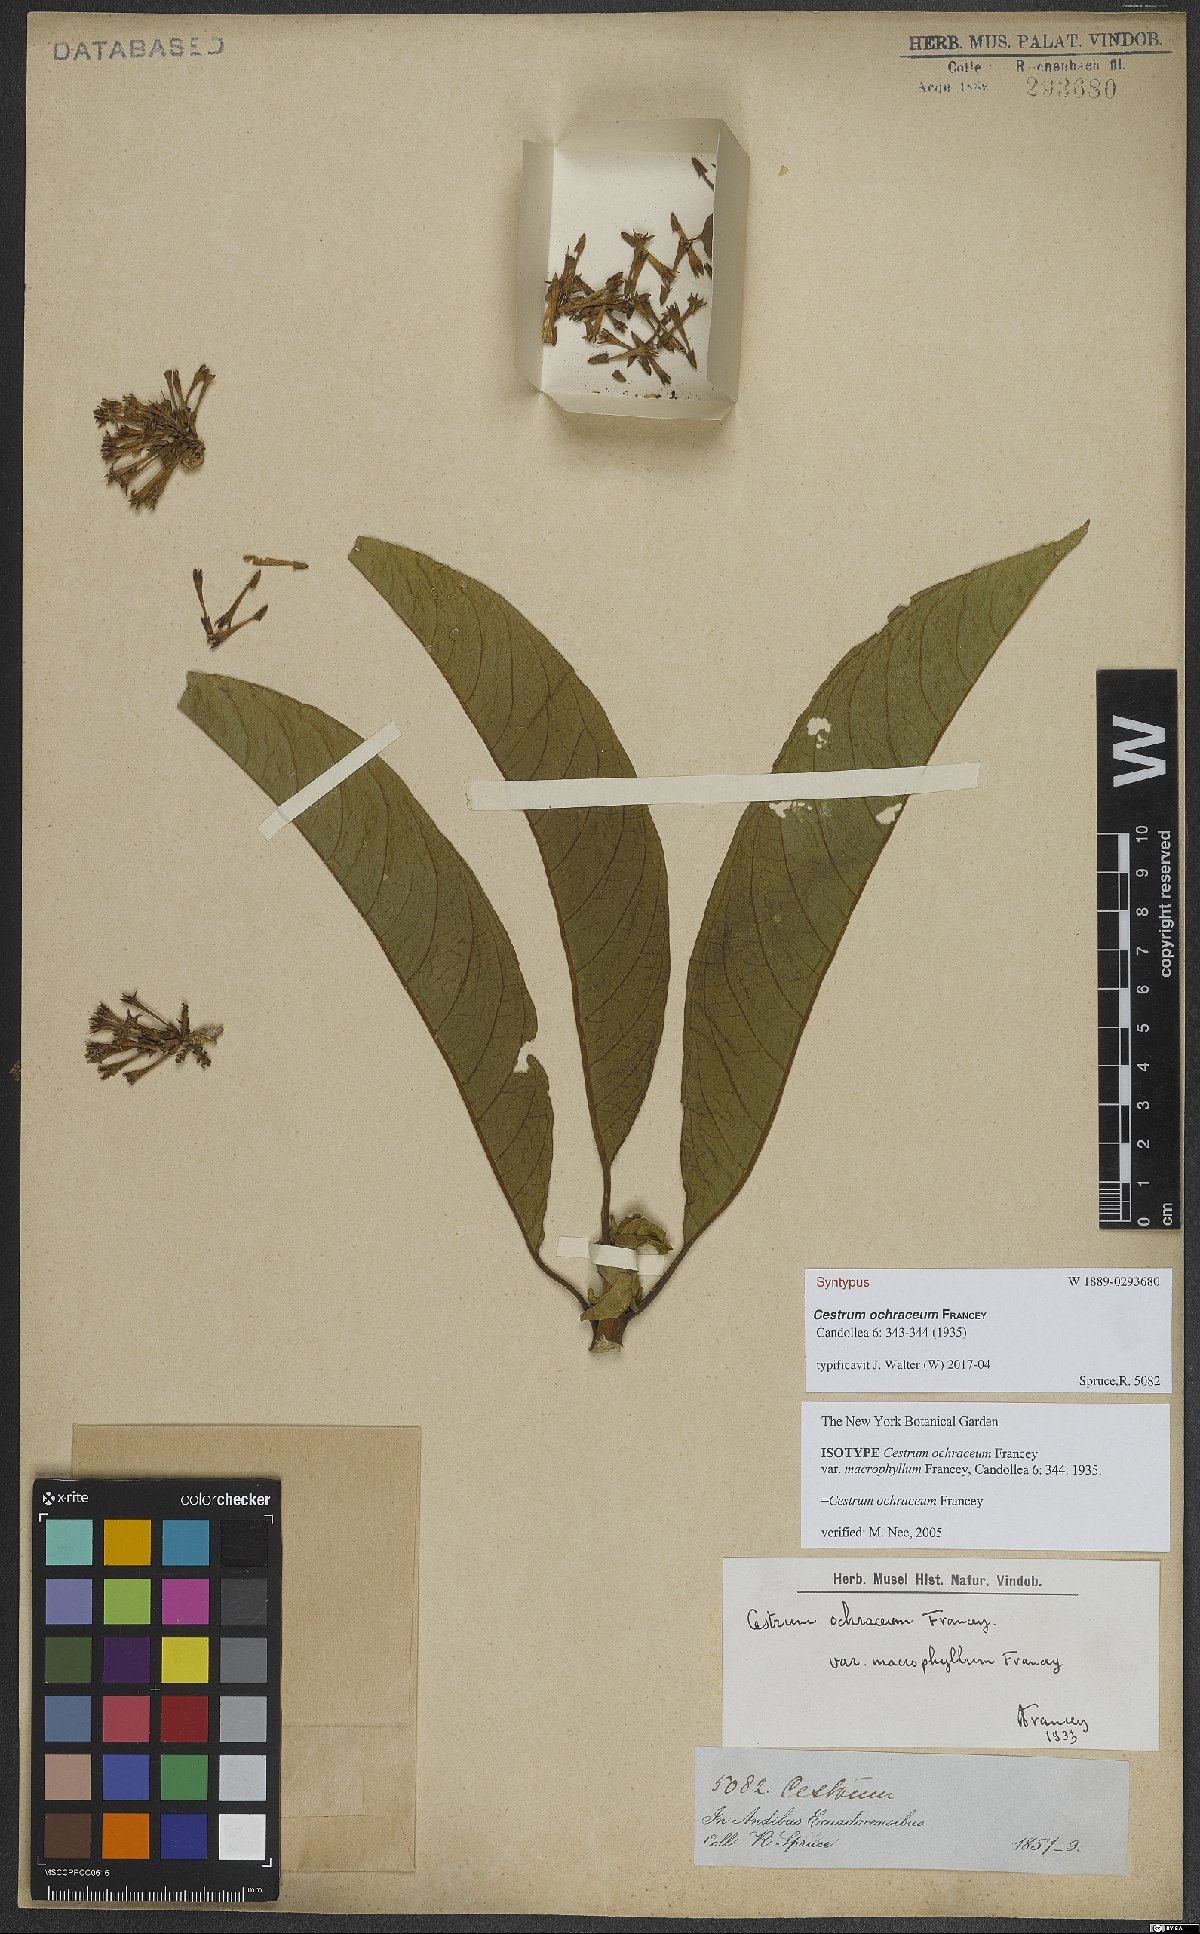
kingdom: Plantae
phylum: Tracheophyta
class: Magnoliopsida
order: Solanales
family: Solanaceae
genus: Cestrum
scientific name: Cestrum ochraceum
